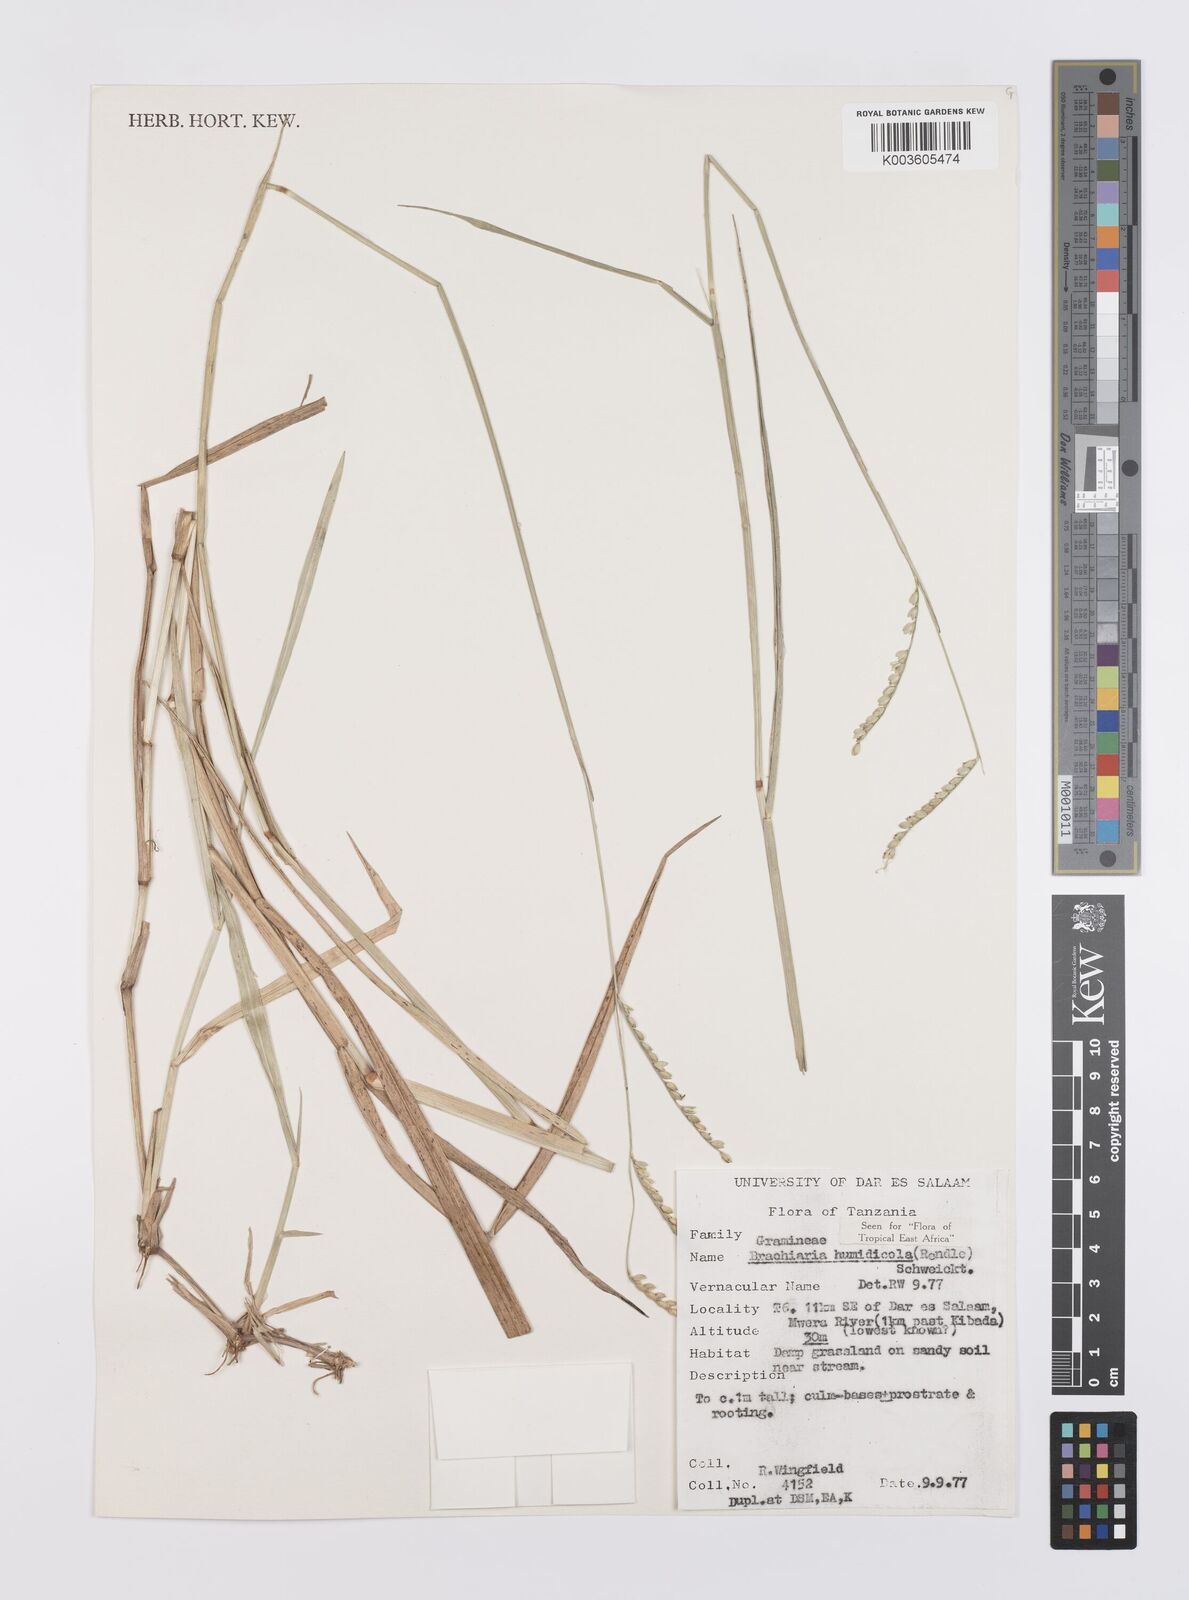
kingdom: Plantae
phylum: Tracheophyta
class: Liliopsida
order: Poales
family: Poaceae
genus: Urochloa
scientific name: Urochloa dictyoneura
